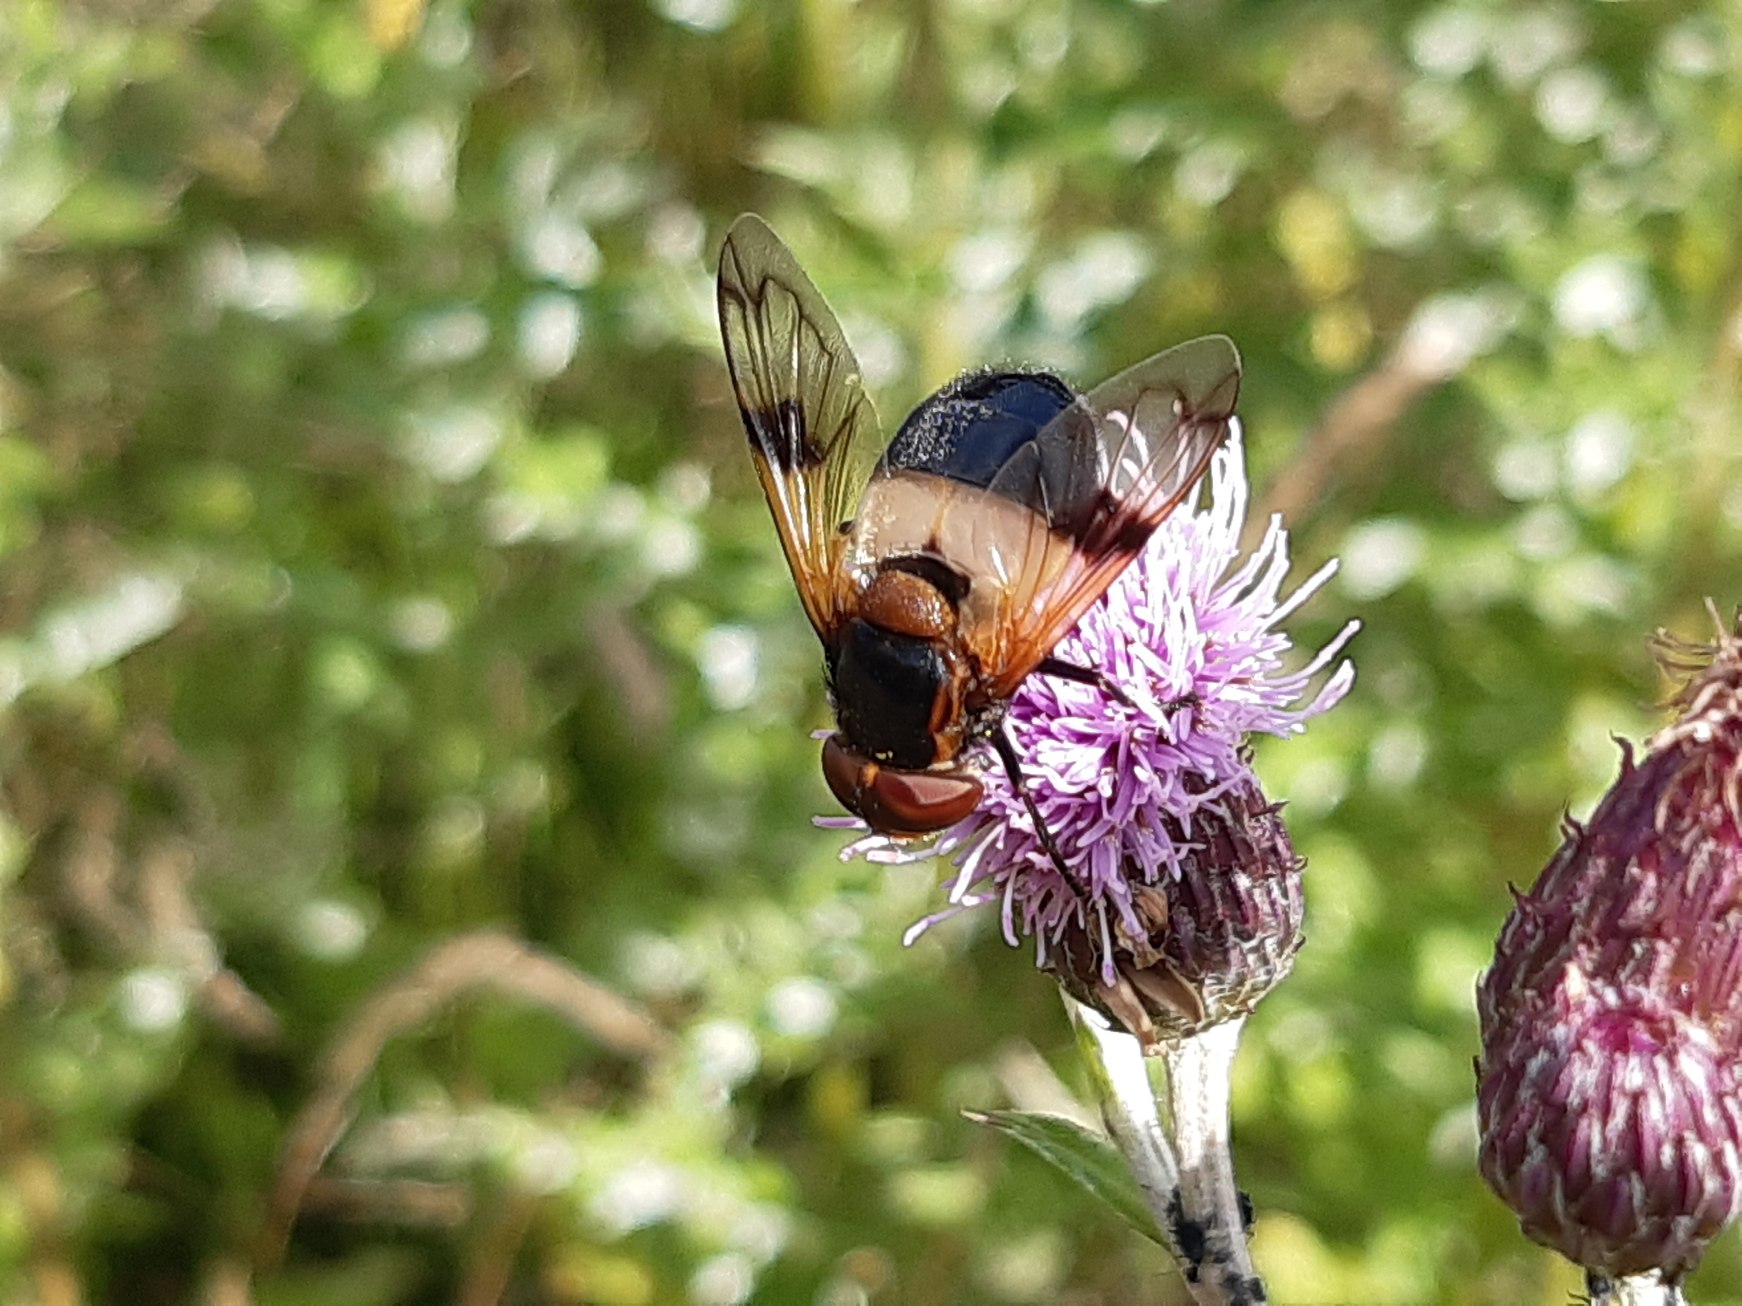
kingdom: Animalia
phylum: Arthropoda
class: Insecta
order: Diptera
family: Syrphidae
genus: Volucella
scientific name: Volucella pellucens
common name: Hvidbåndet humlesvirreflue
